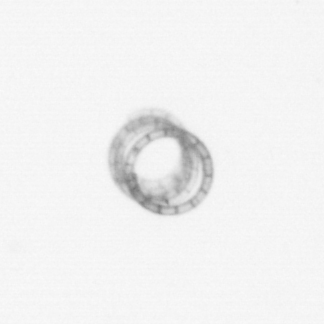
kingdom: Chromista
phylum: Ochrophyta
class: Bacillariophyceae
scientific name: Bacillariophyceae
